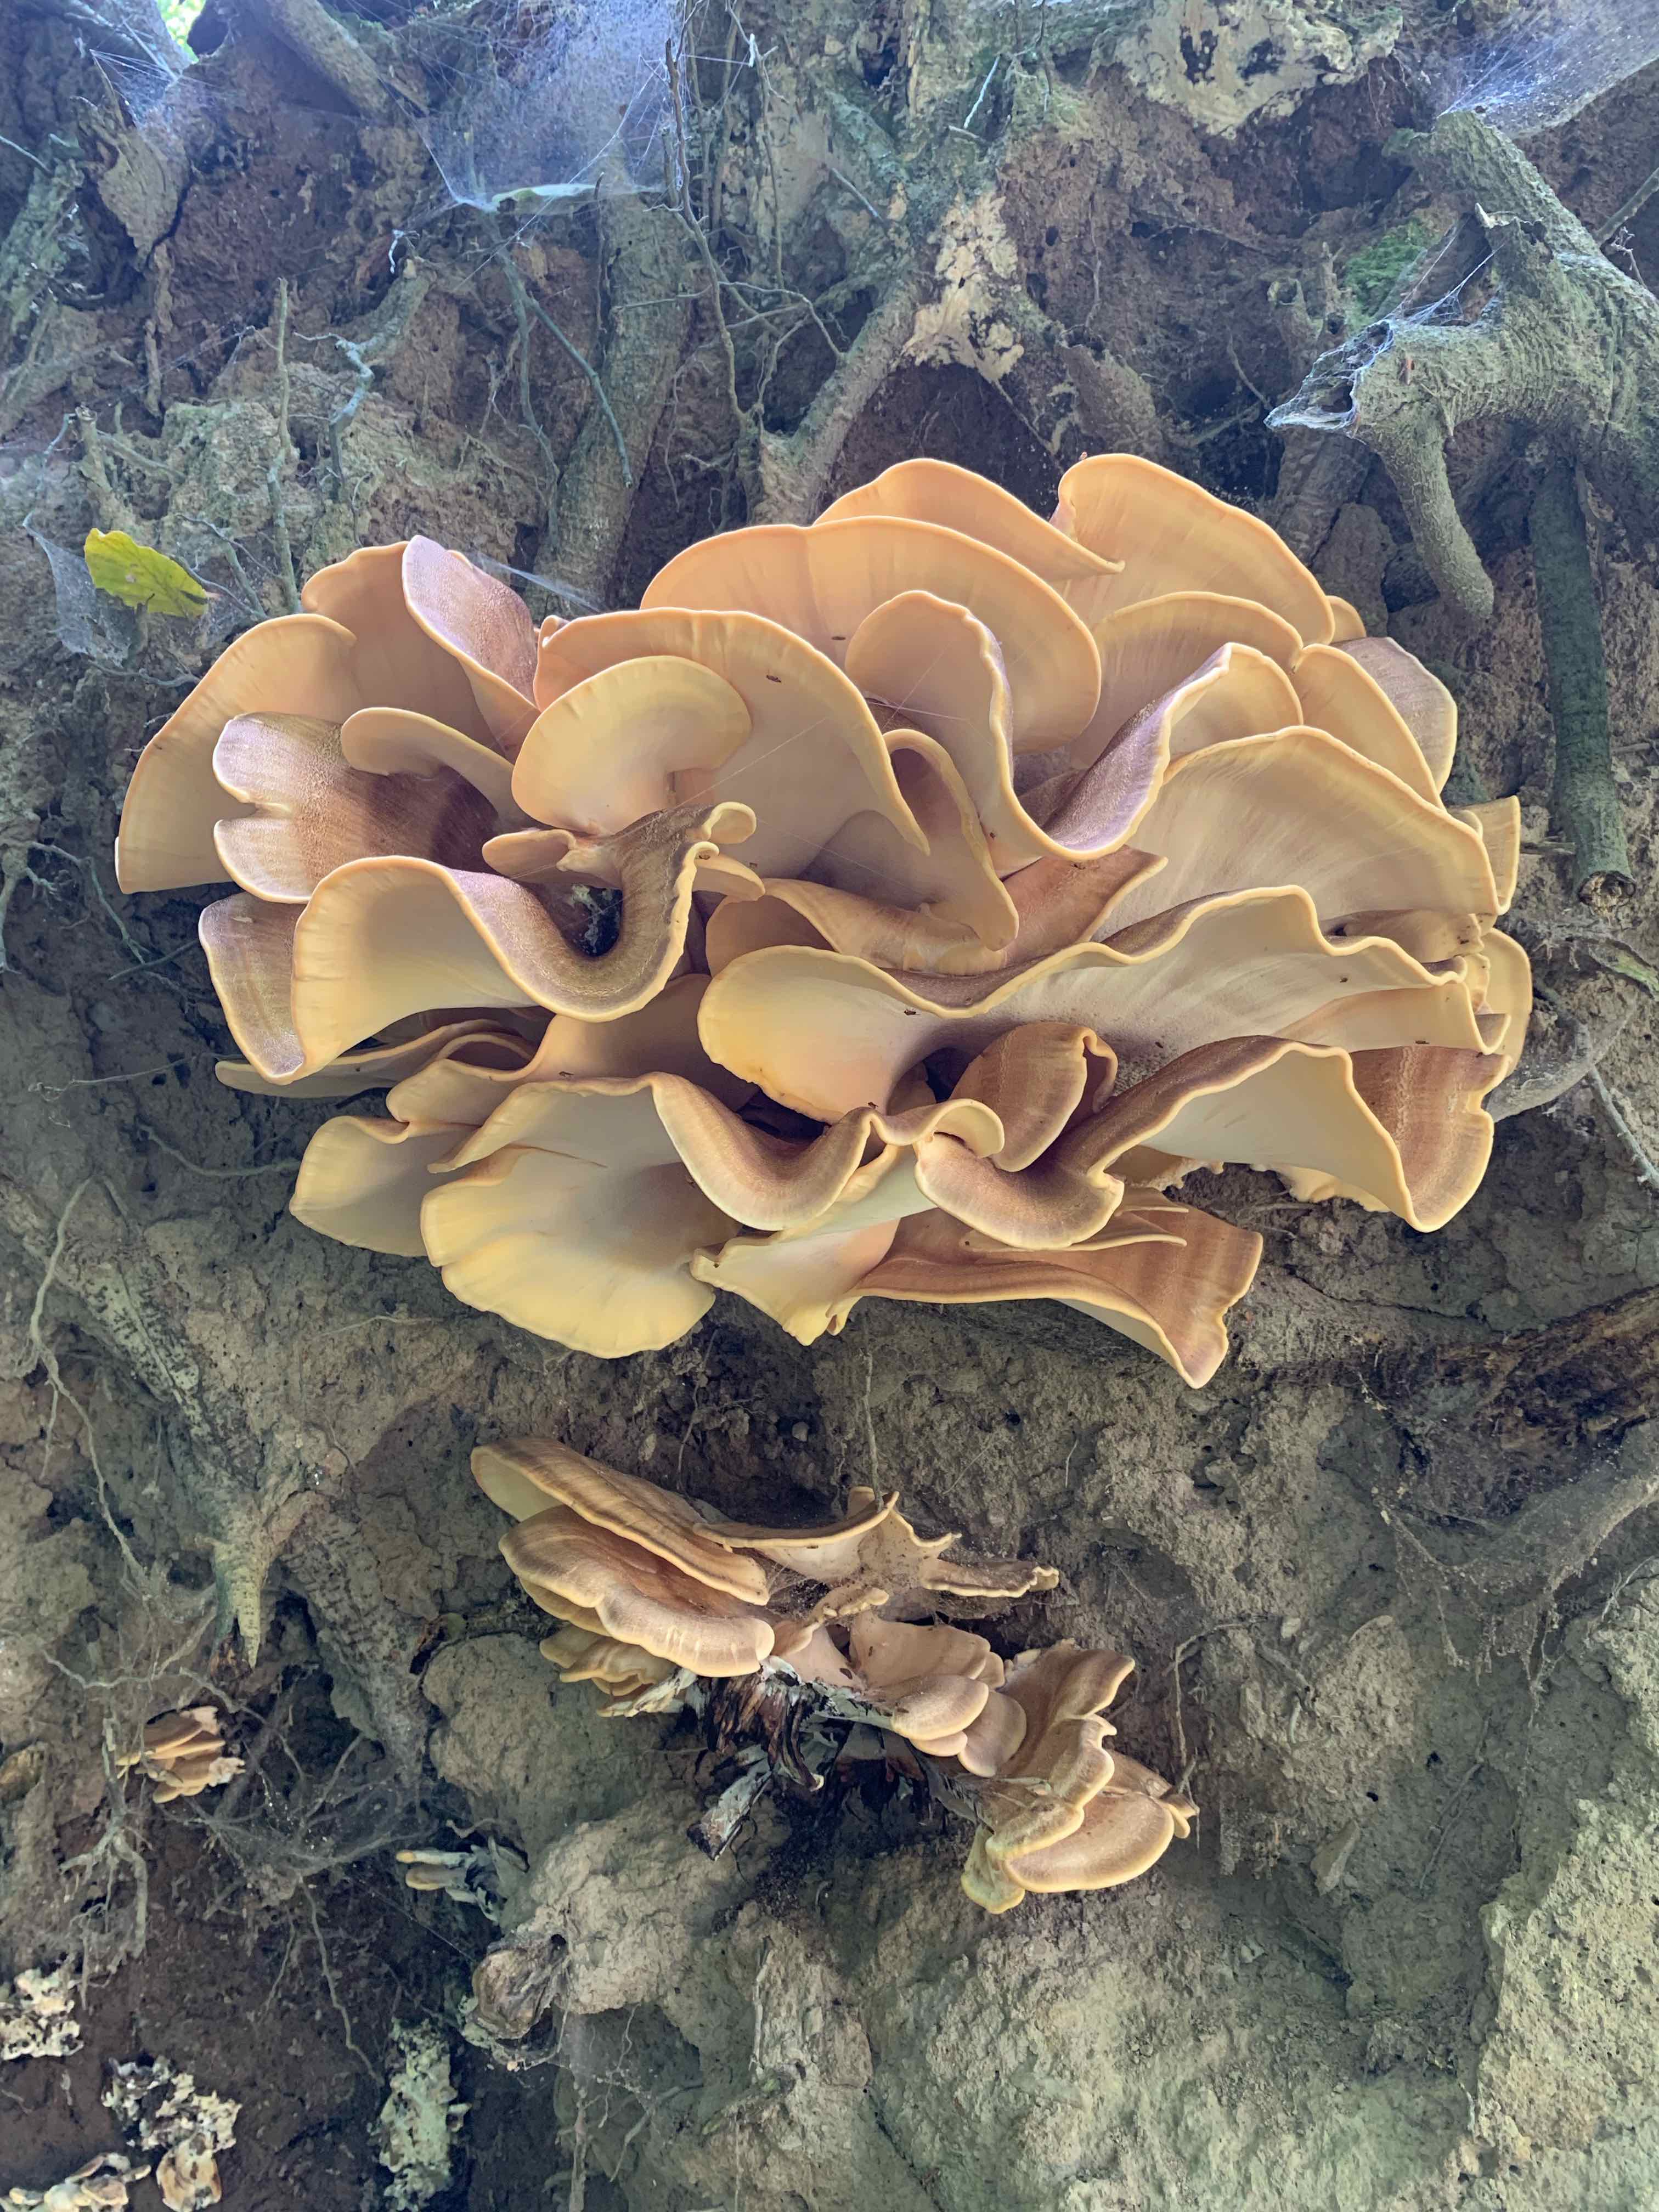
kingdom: Fungi
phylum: Basidiomycota
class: Agaricomycetes
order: Polyporales
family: Meripilaceae
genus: Meripilus
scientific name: Meripilus giganteus
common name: kæmpeporesvamp
